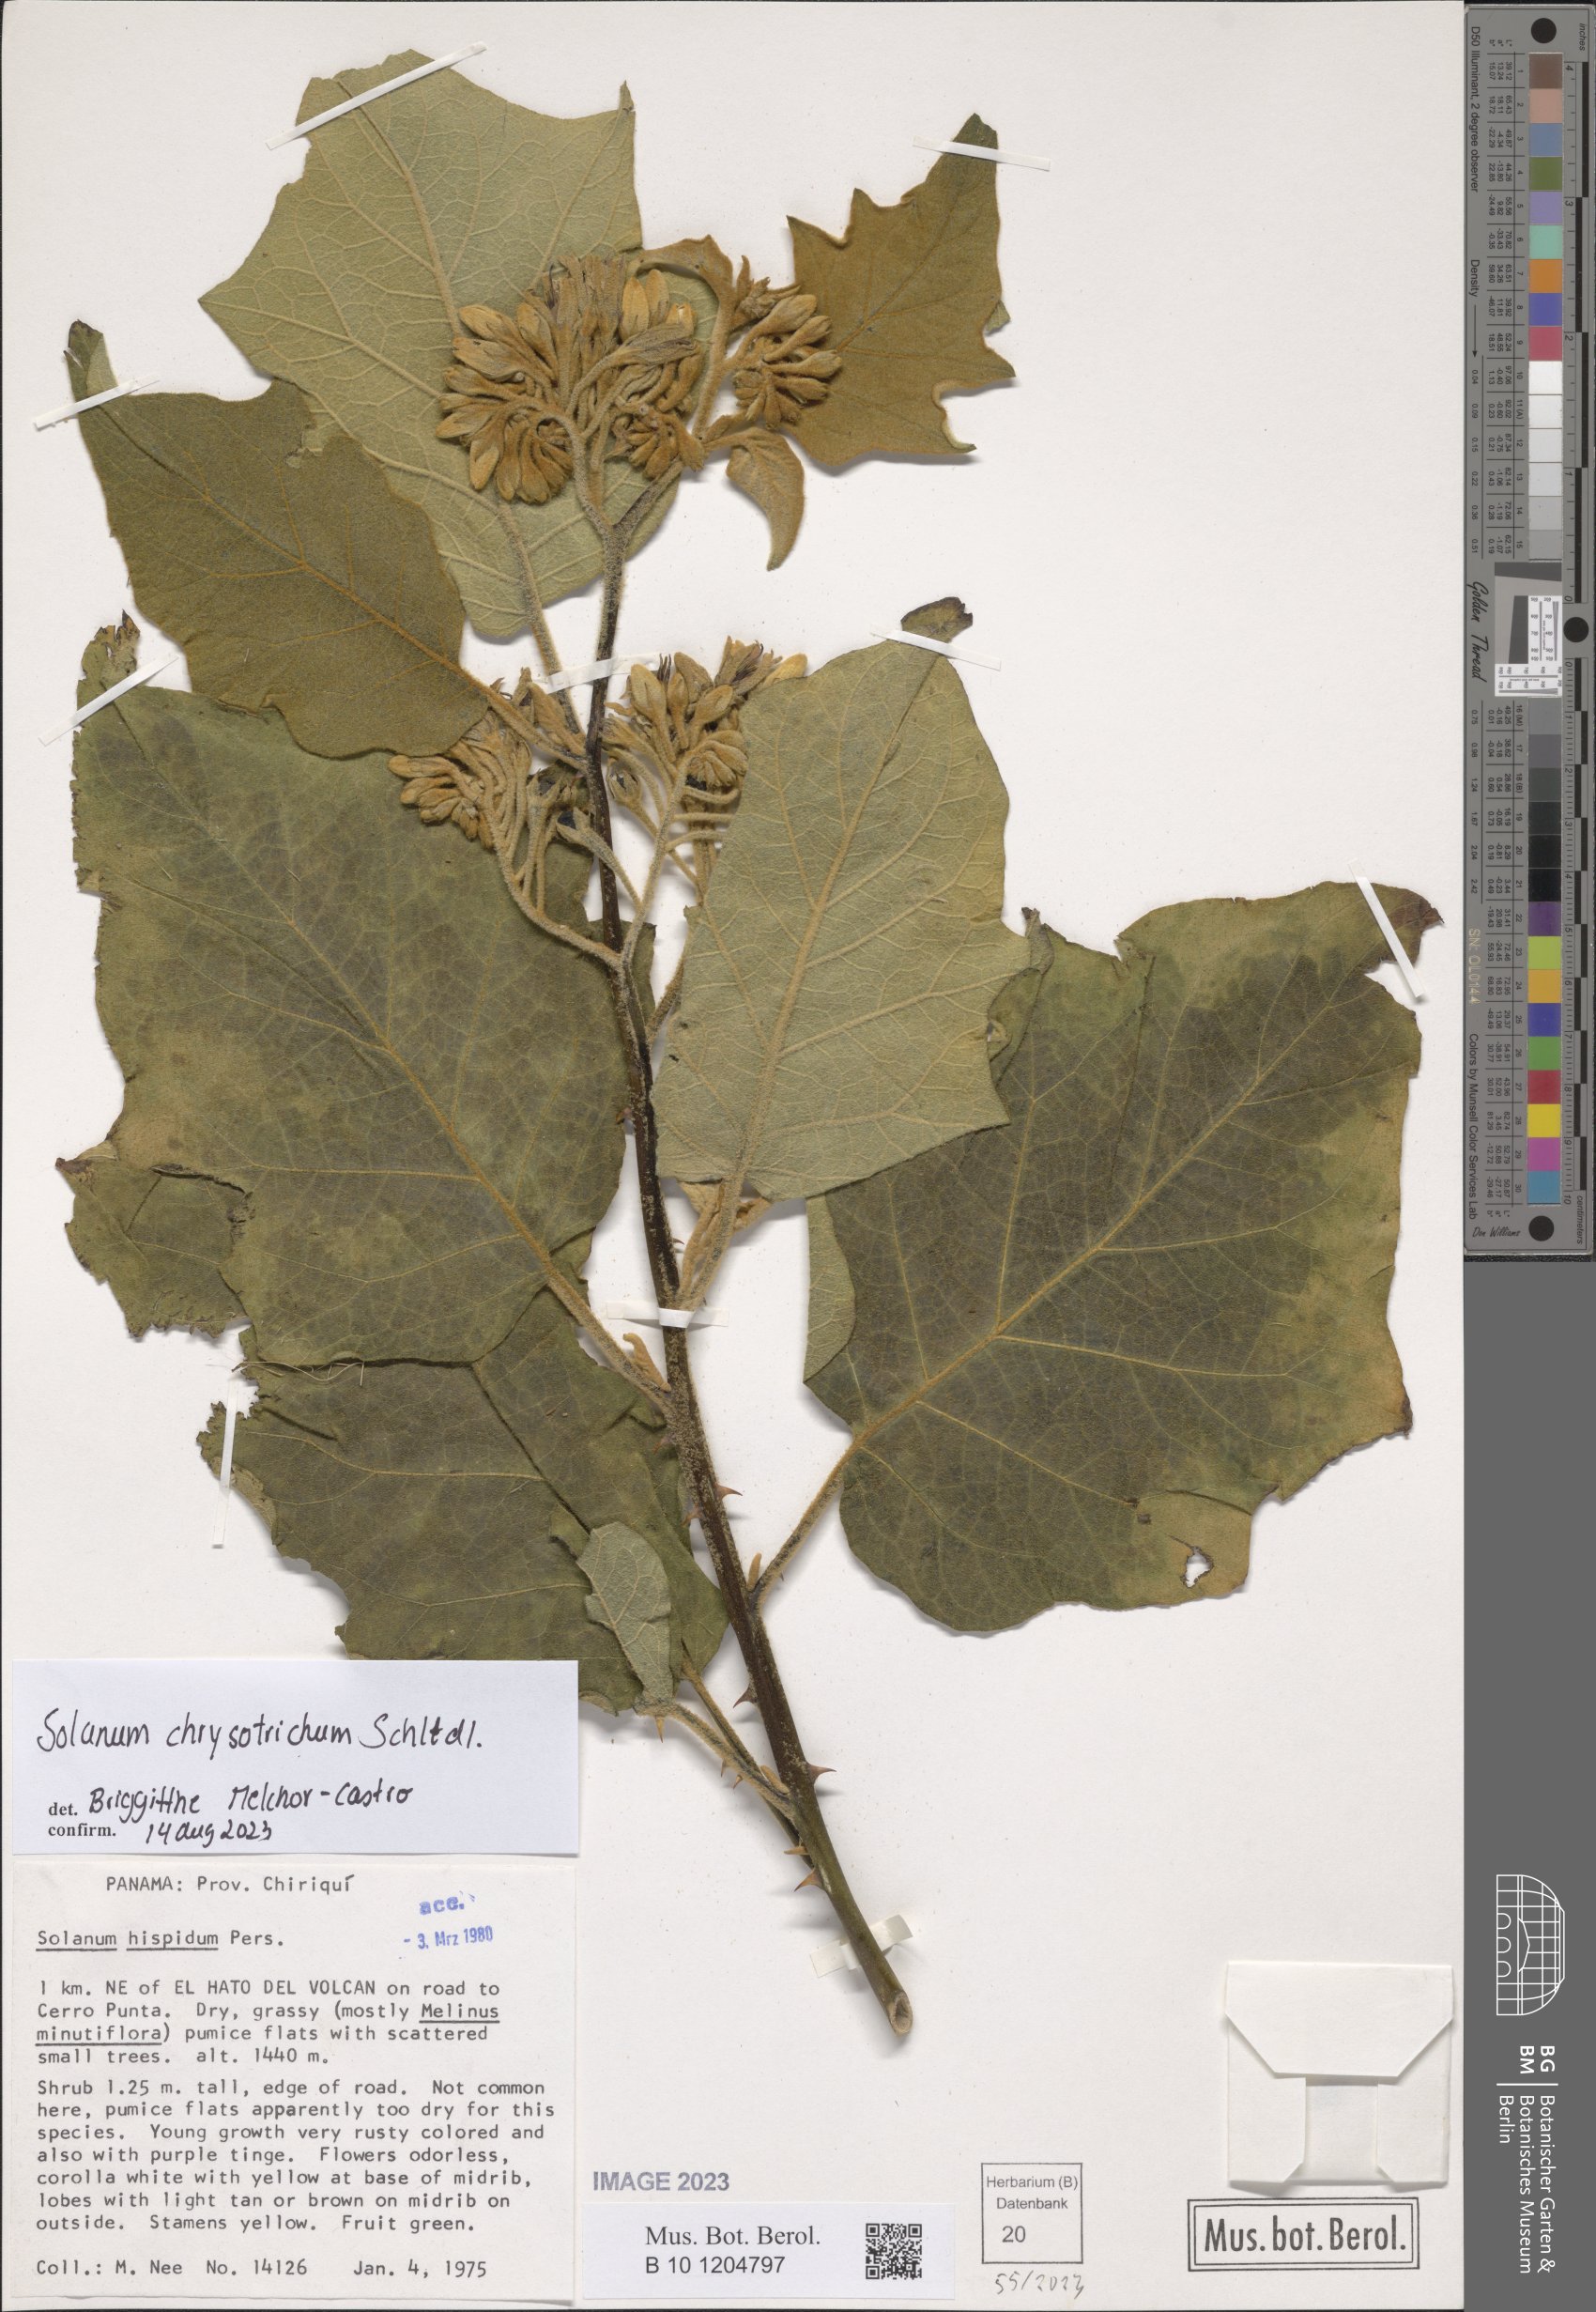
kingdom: Plantae
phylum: Tracheophyta
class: Magnoliopsida
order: Solanales
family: Solanaceae
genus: Solanum
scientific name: Solanum chrysotrichum
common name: Nightshade
